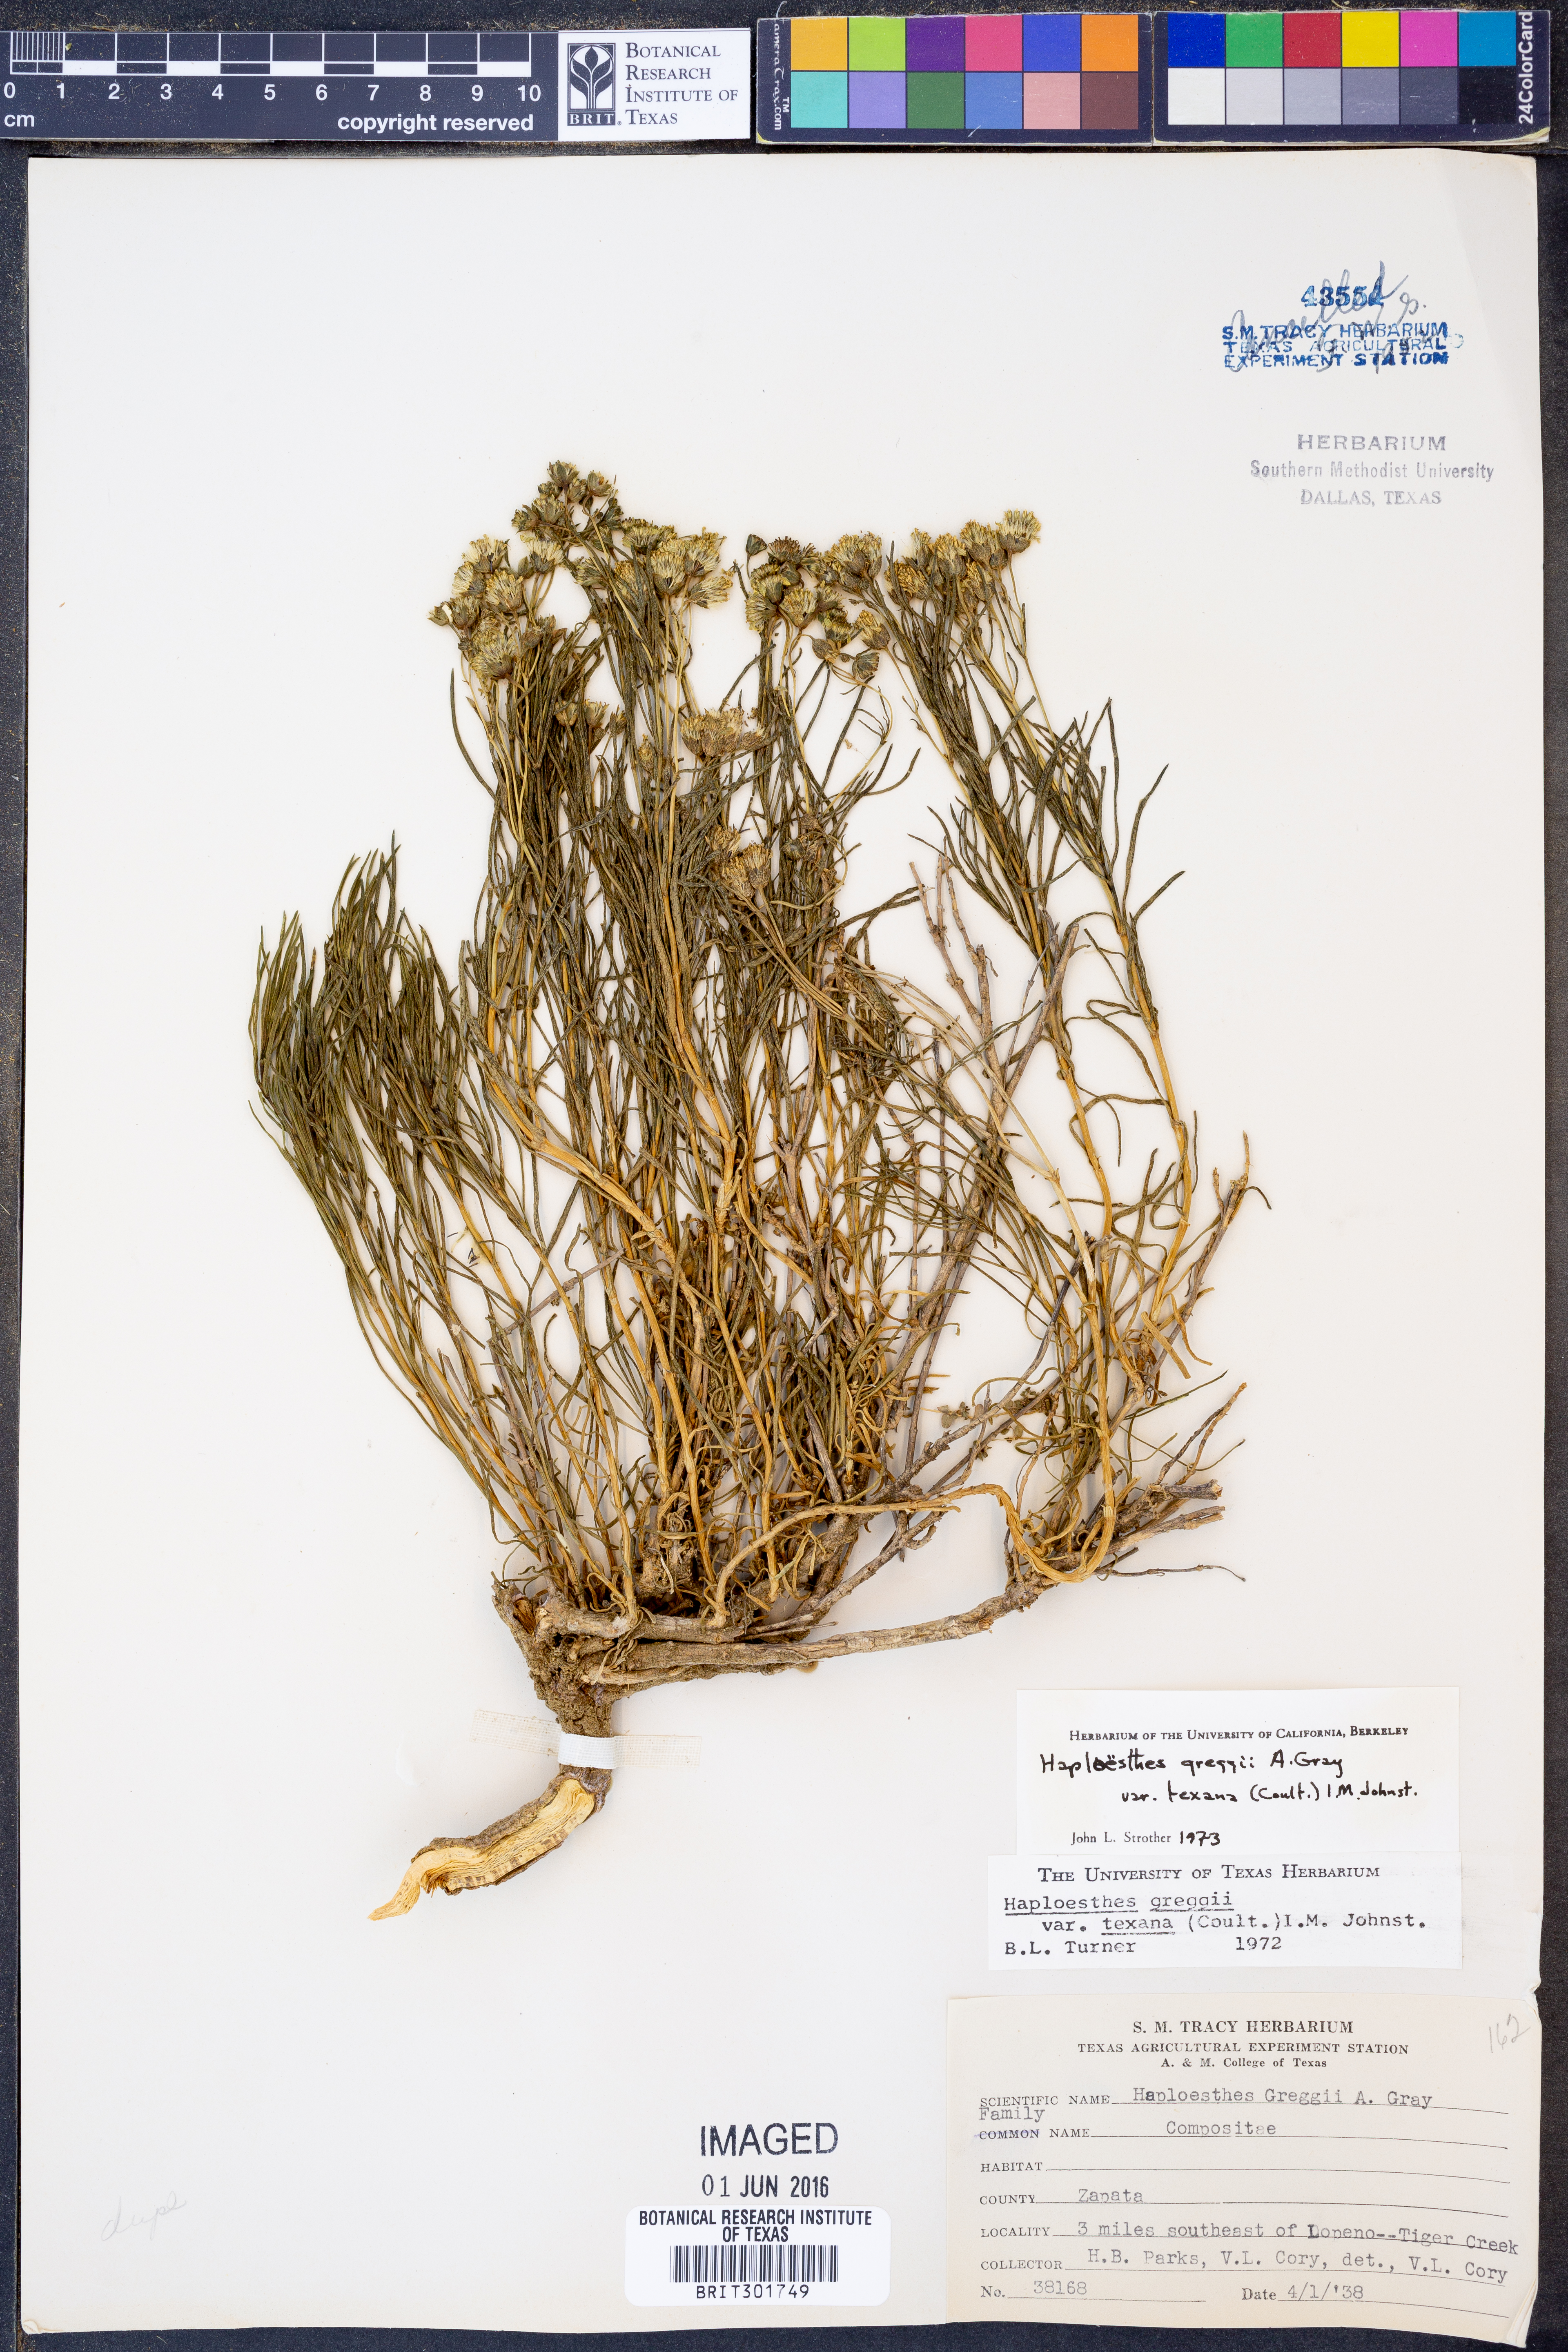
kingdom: Plantae
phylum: Tracheophyta
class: Magnoliopsida
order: Asterales
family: Asteraceae
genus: Haploesthes
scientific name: Haploesthes greggii
